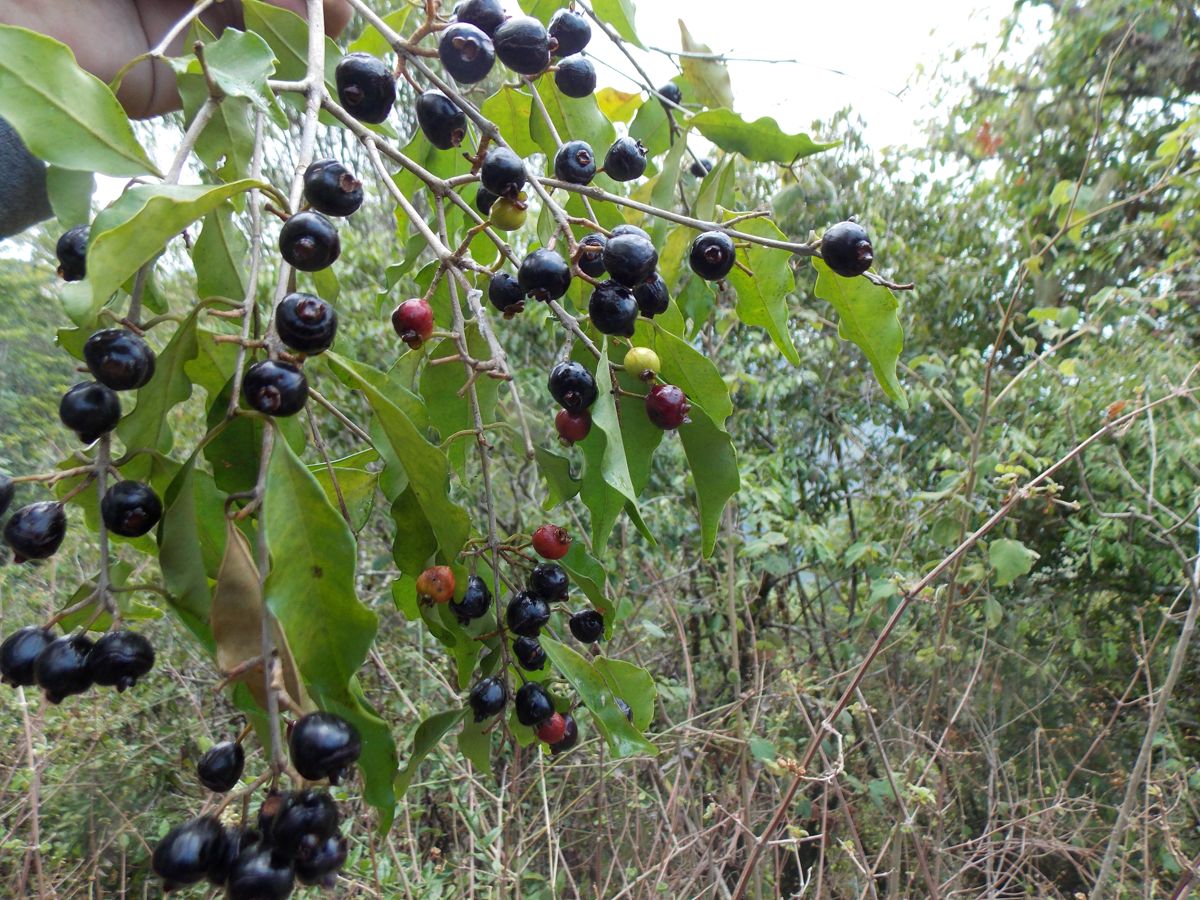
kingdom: Plantae
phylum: Tracheophyta
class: Magnoliopsida
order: Myrtales
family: Myrtaceae
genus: Eugenia
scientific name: Eugenia guatemalensis
